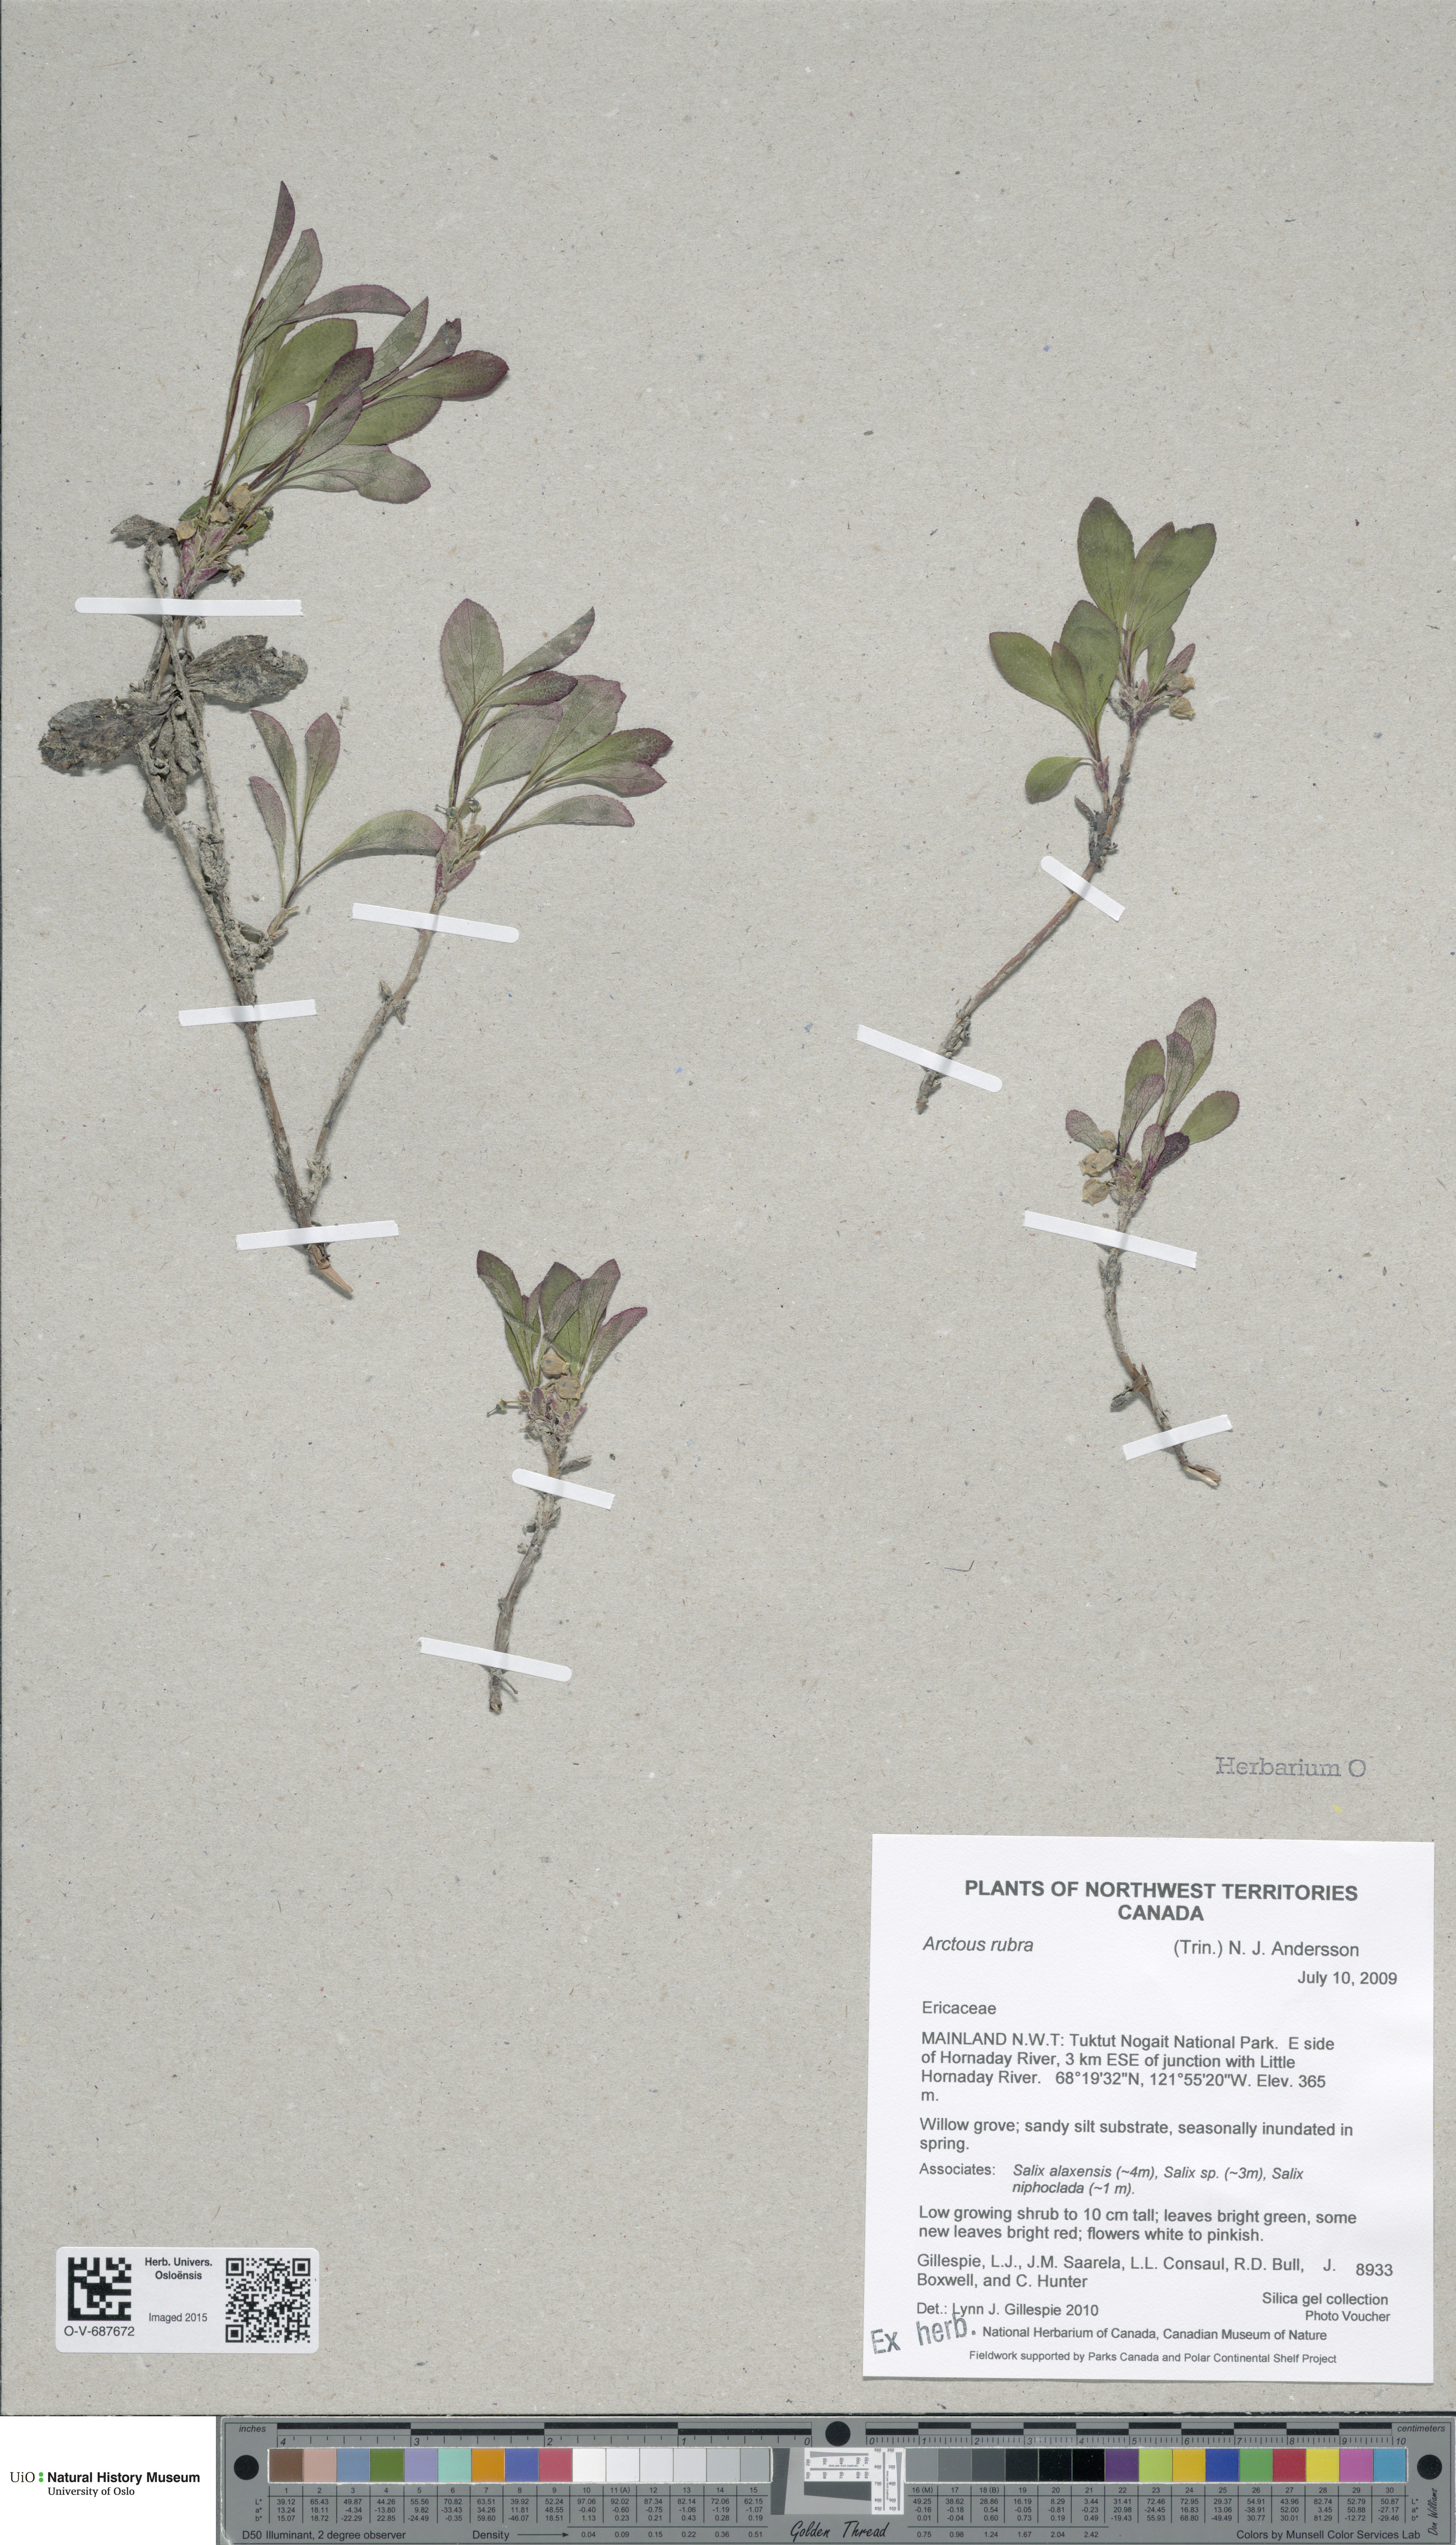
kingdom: Plantae
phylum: Tracheophyta
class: Magnoliopsida
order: Ericales
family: Ericaceae
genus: Arctostaphylos
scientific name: Arctostaphylos rubra
